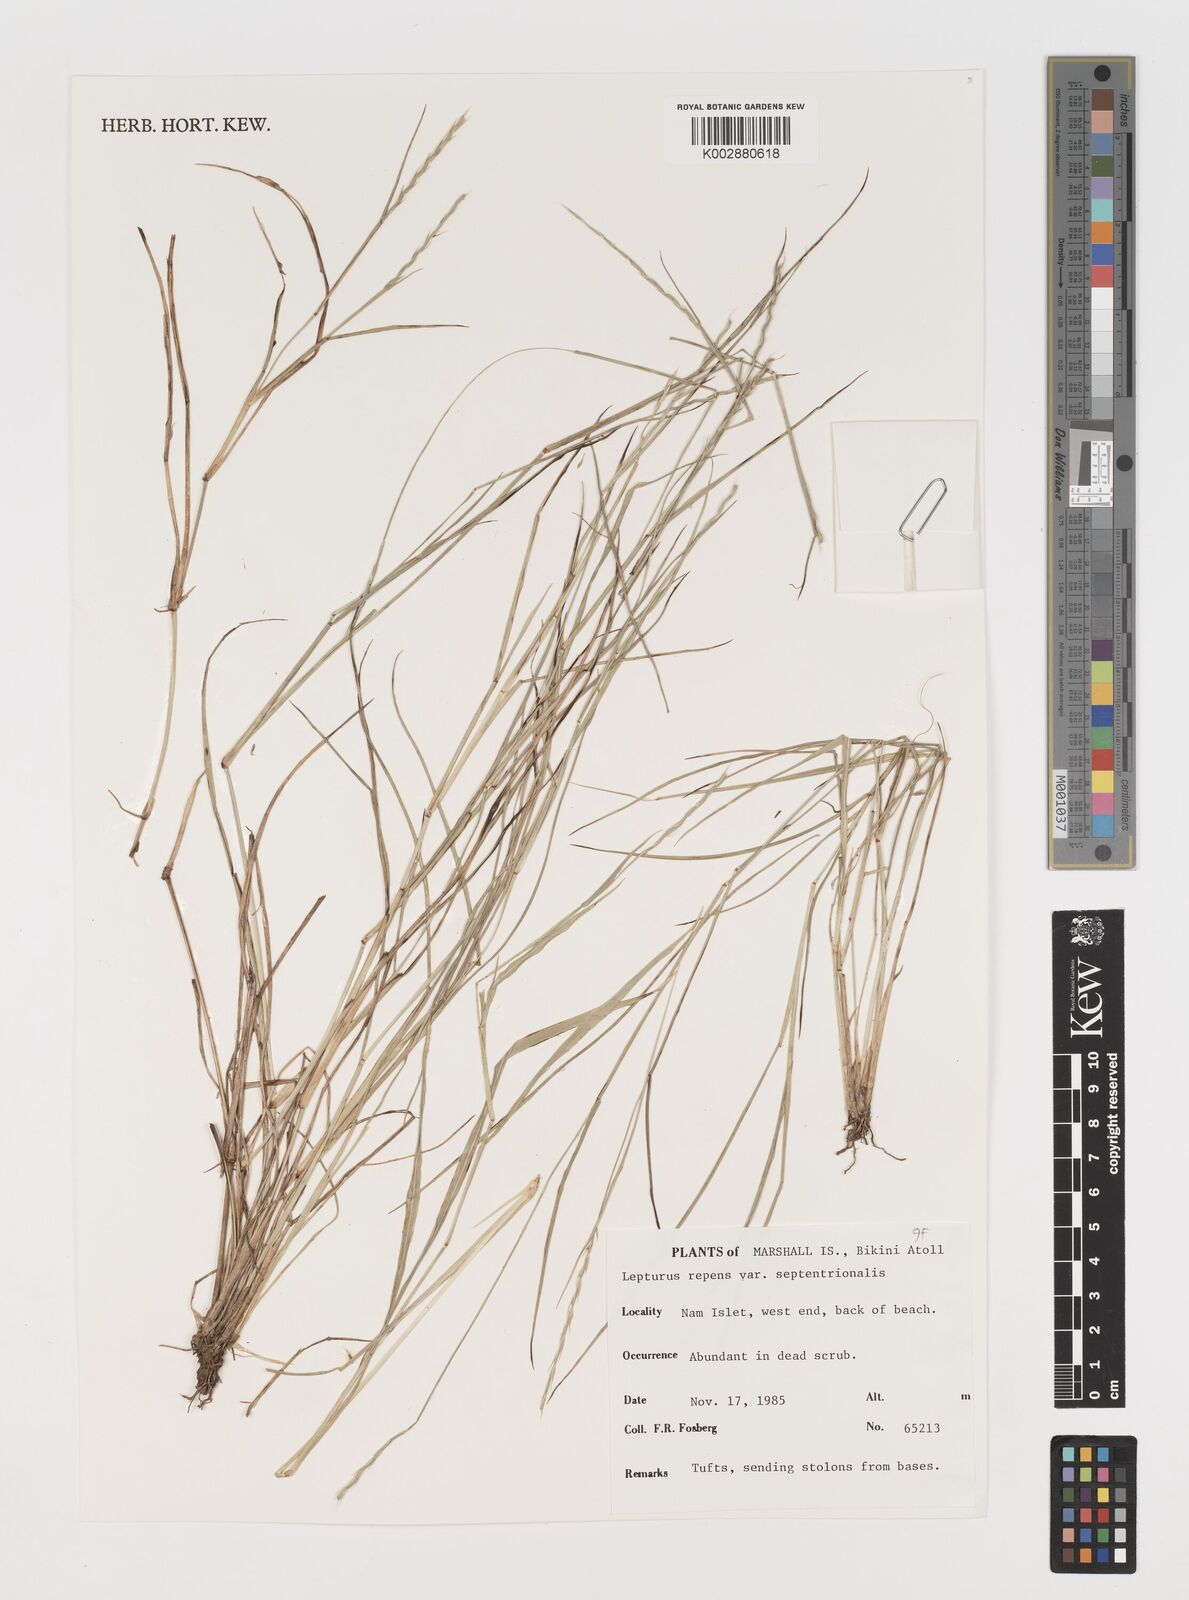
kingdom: Plantae
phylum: Tracheophyta
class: Liliopsida
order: Poales
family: Poaceae
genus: Lepturus
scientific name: Lepturus repens
